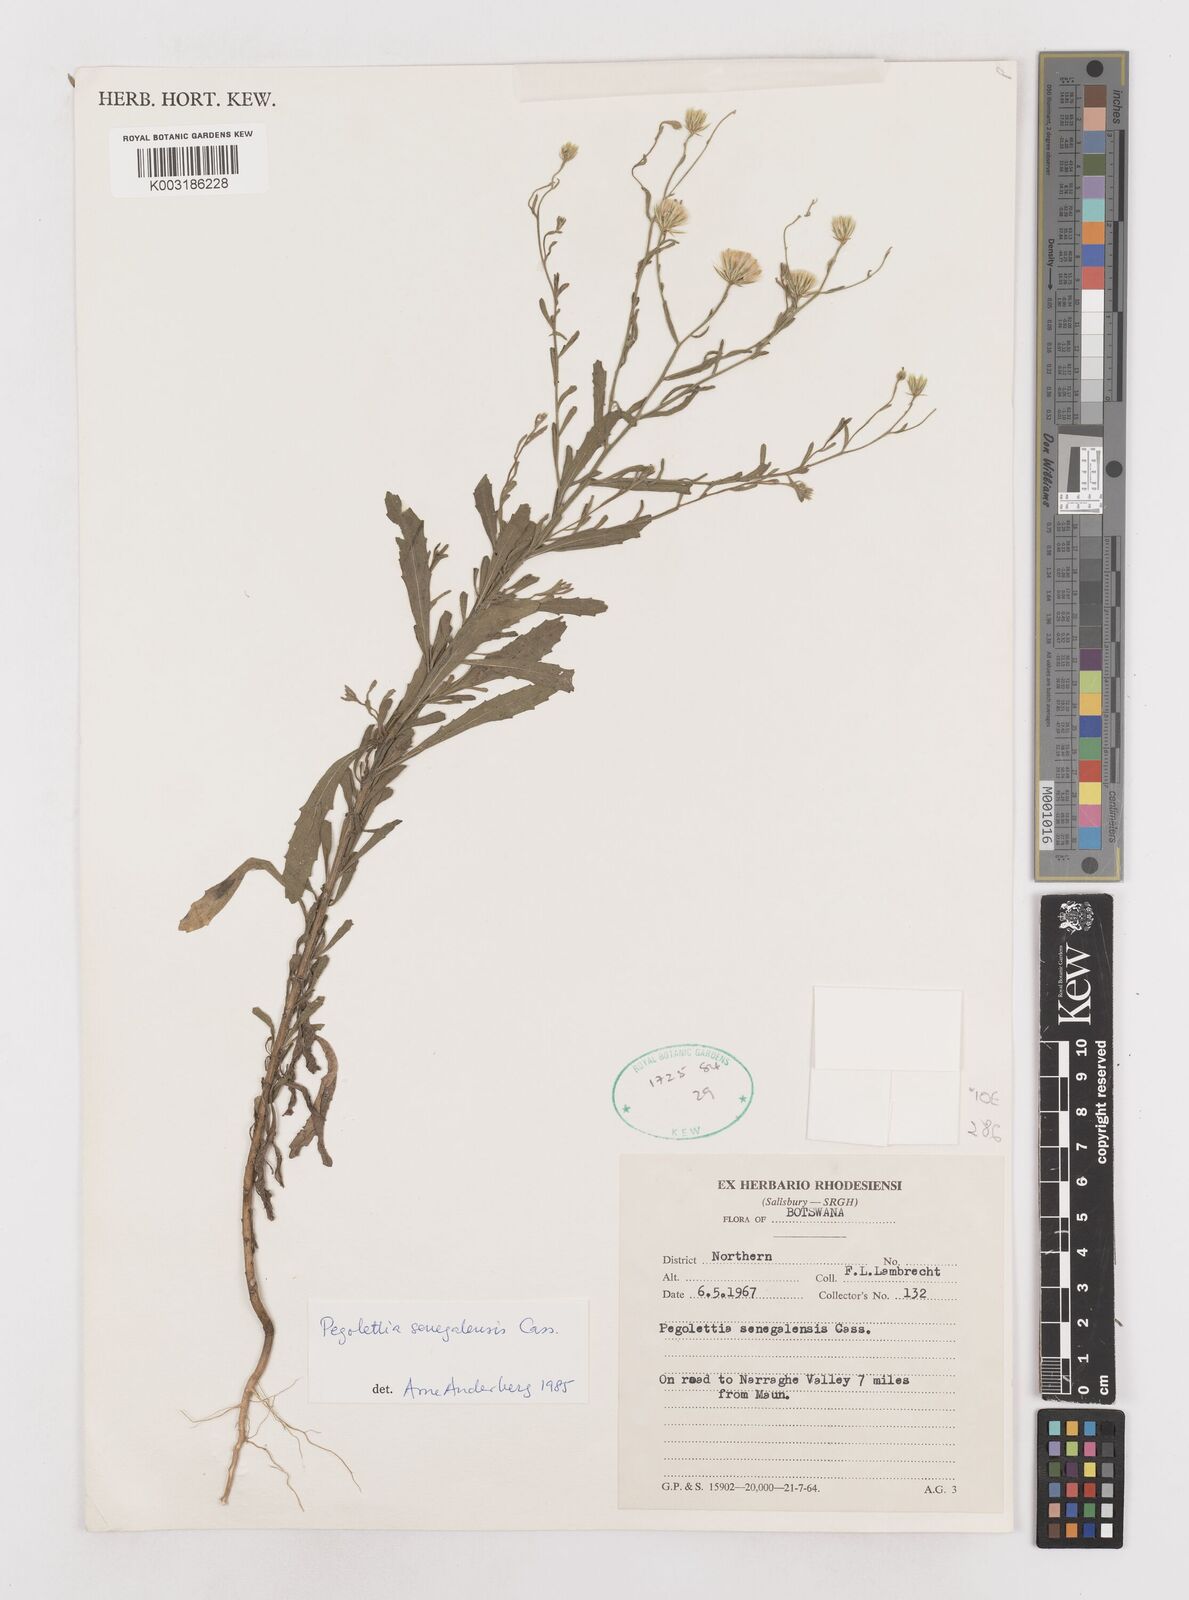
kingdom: Plantae
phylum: Tracheophyta
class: Magnoliopsida
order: Asterales
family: Asteraceae
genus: Pegolettia
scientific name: Pegolettia senegalensis
